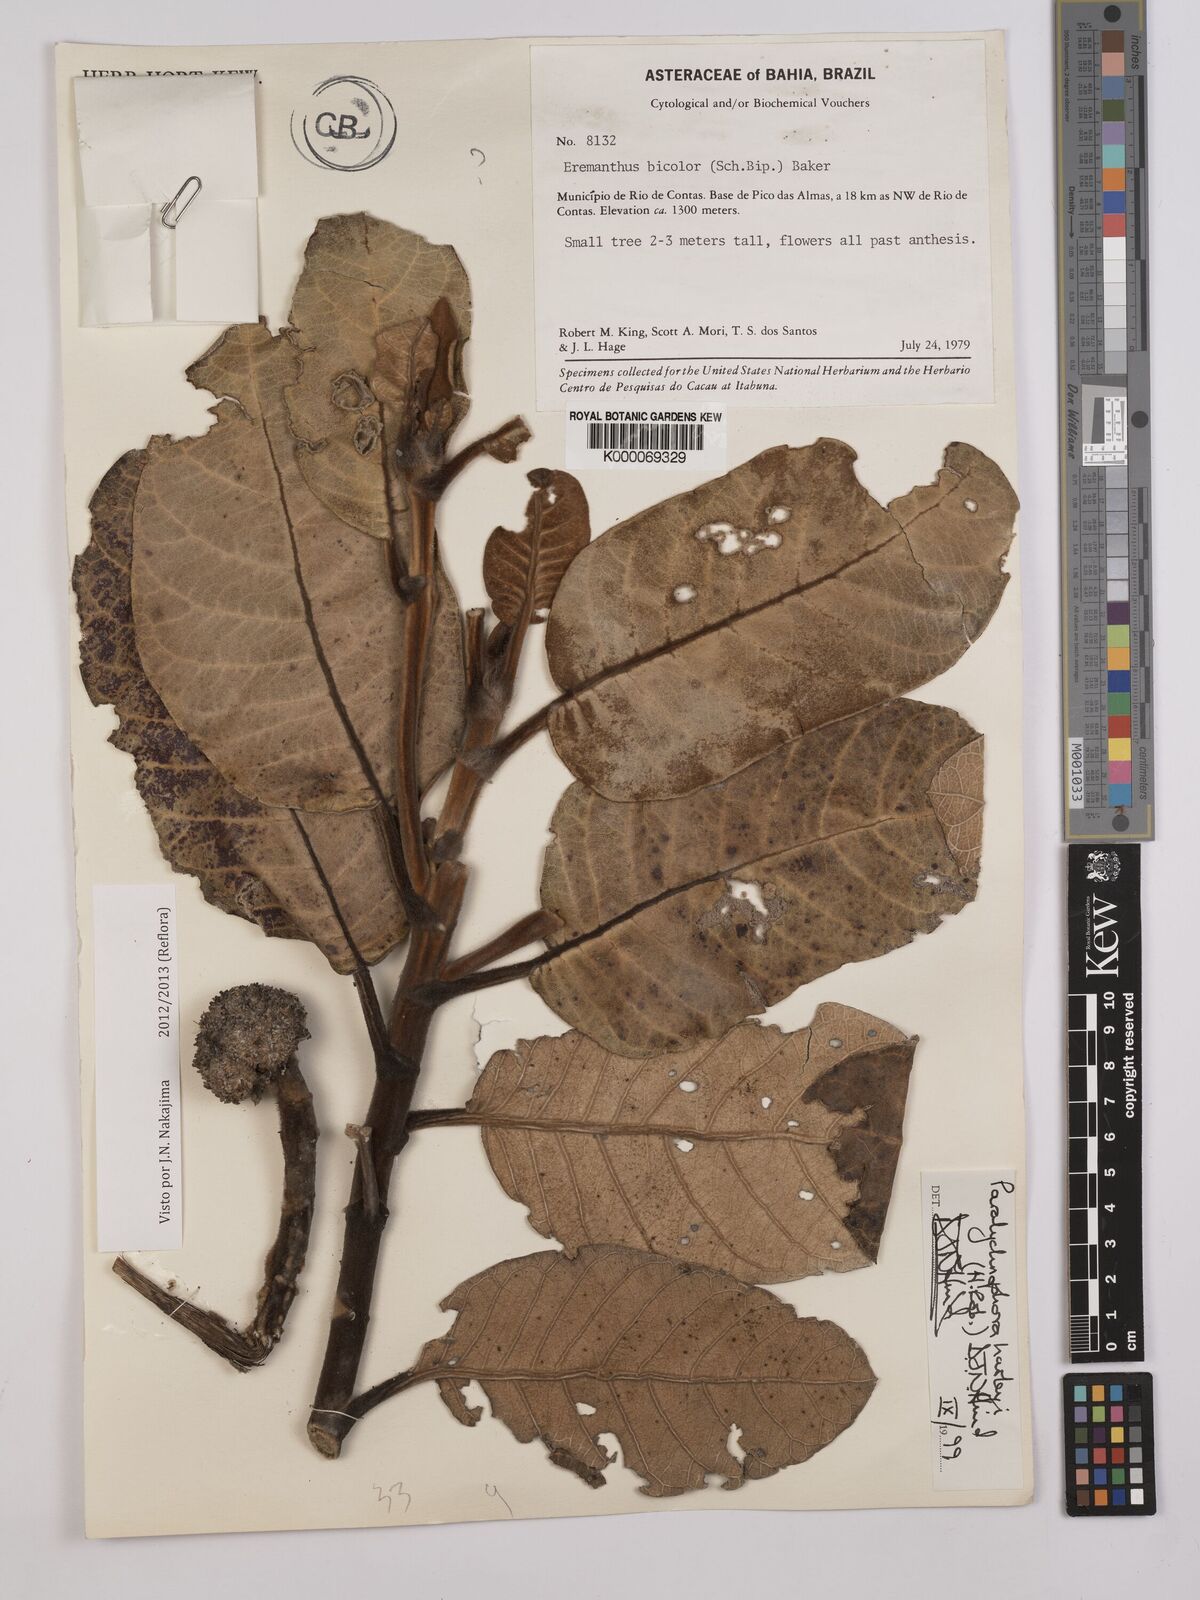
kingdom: Plantae
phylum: Tracheophyta
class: Magnoliopsida
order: Asterales
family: Asteraceae
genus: Paralychnophora
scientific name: Paralychnophora harleyi
